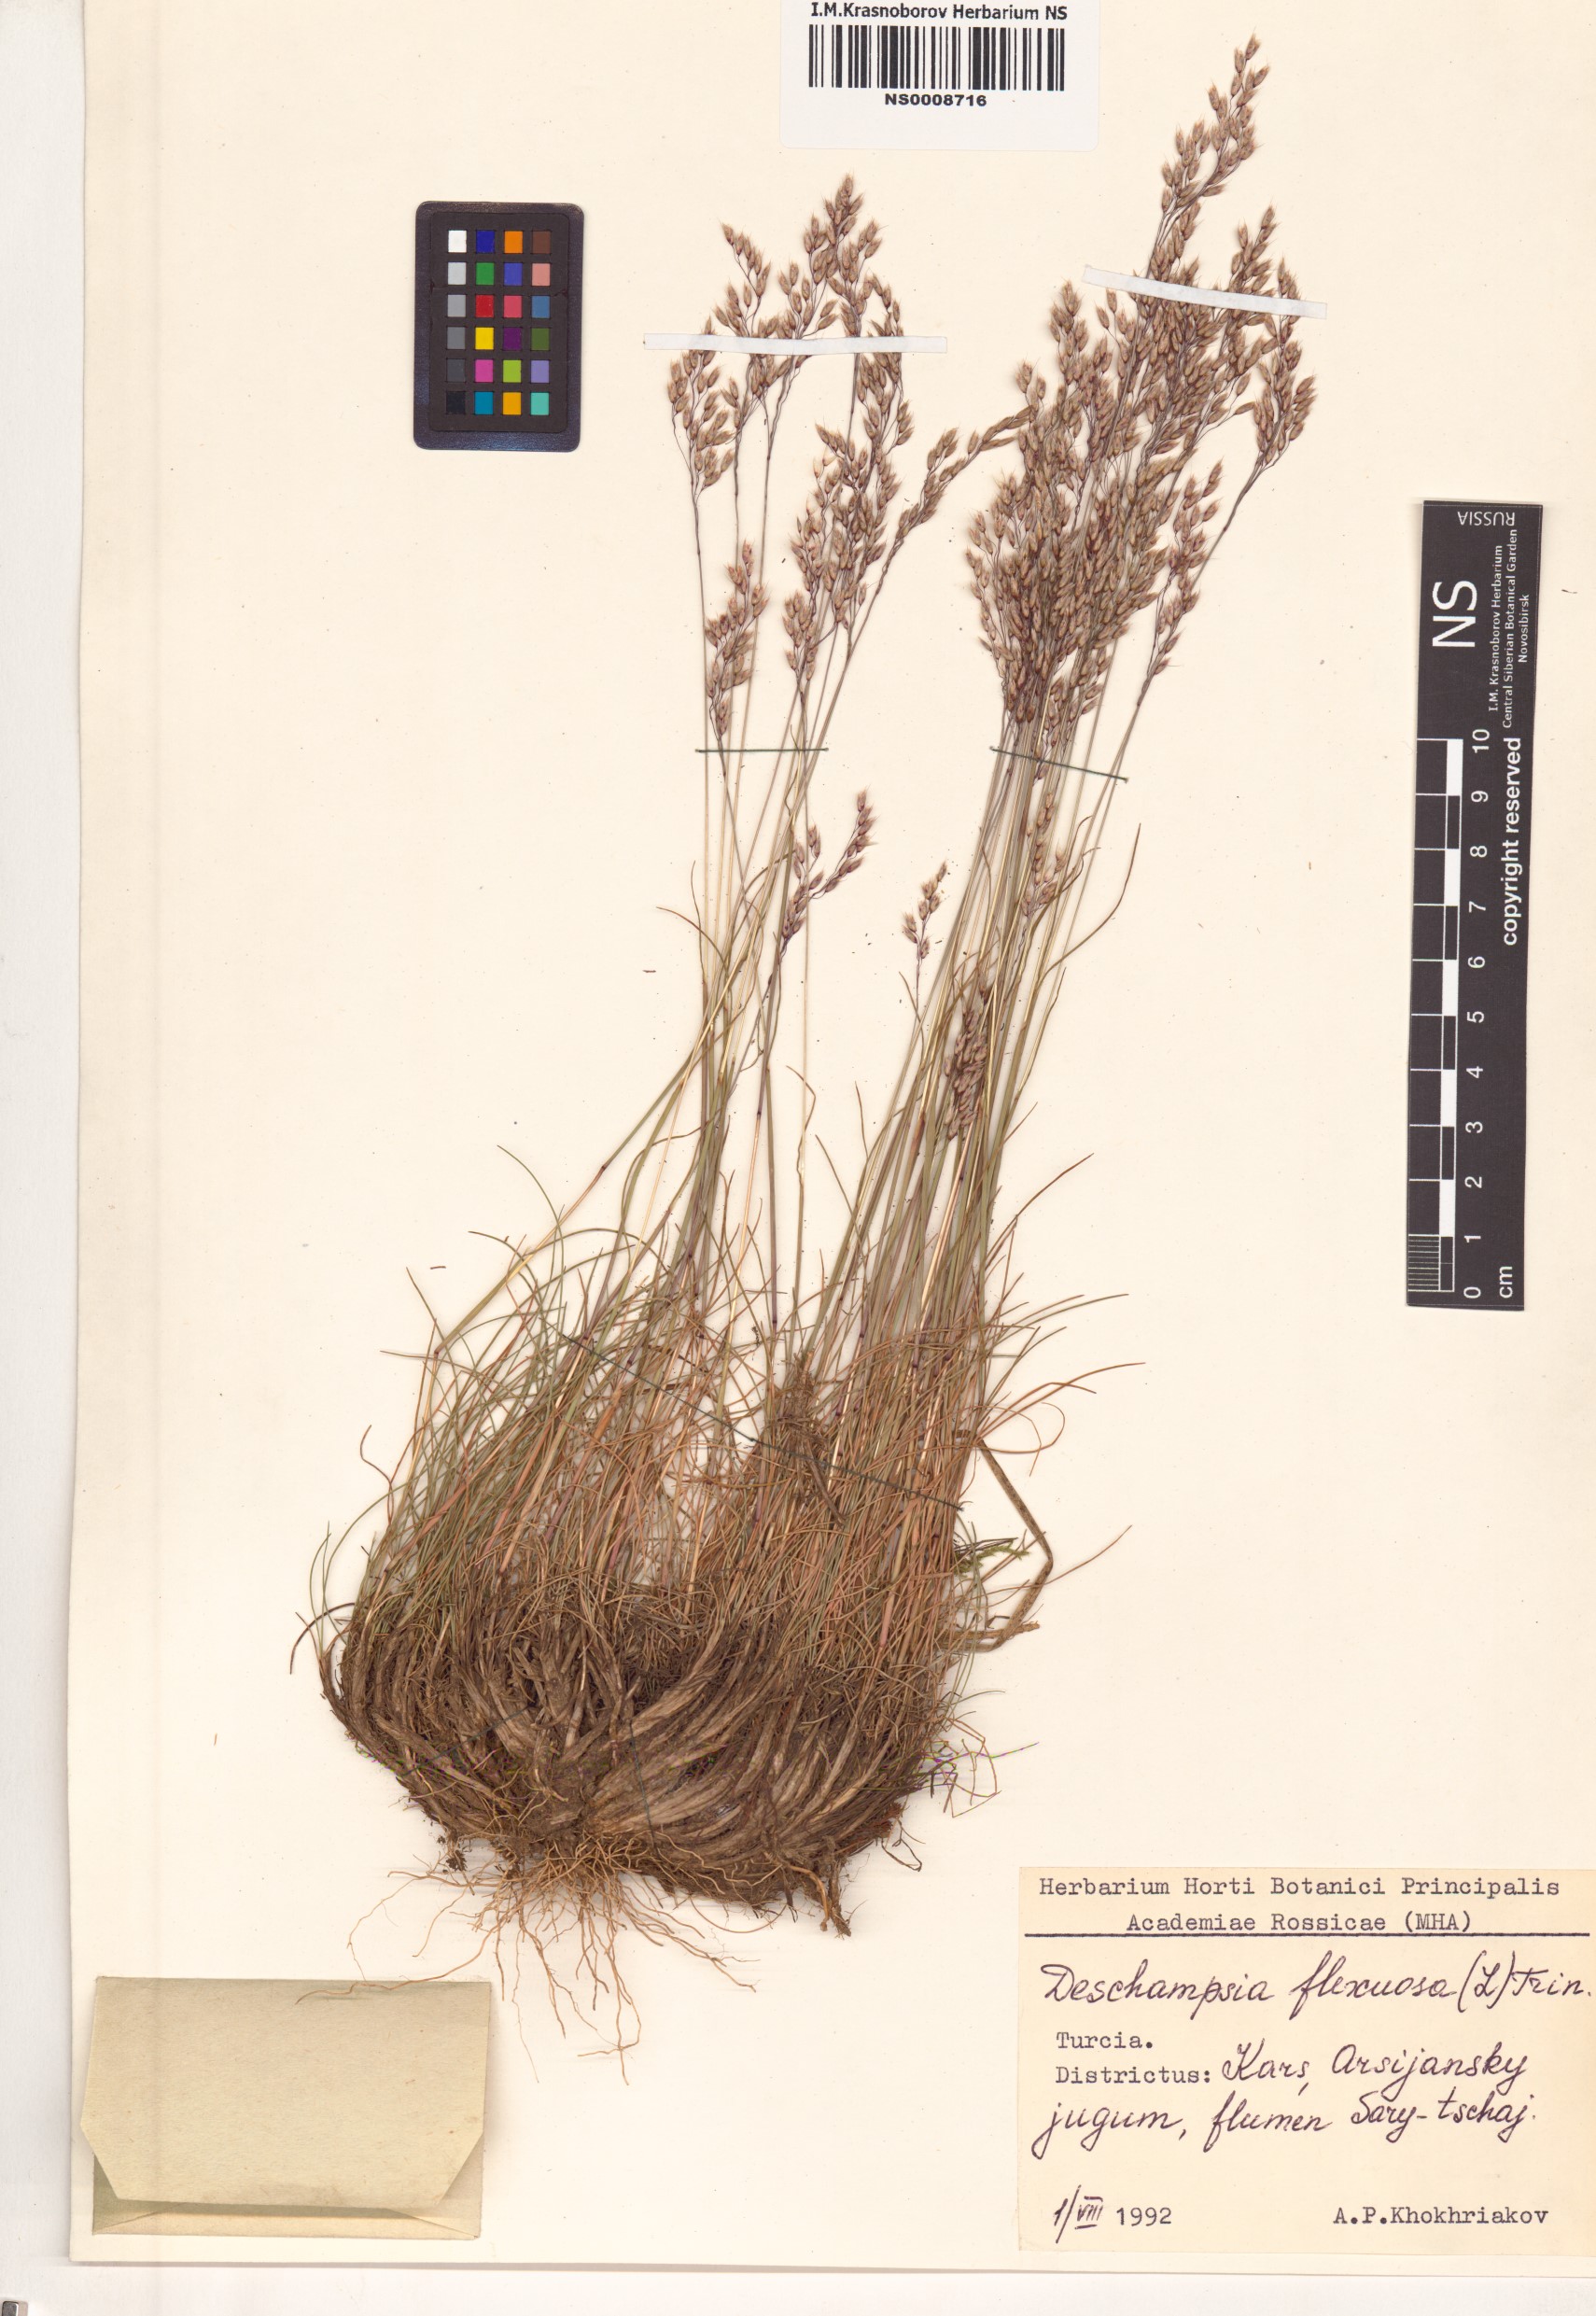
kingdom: Plantae
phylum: Tracheophyta
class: Liliopsida
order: Poales
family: Poaceae
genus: Avenella
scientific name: Avenella flexuosa
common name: Wavy hairgrass
